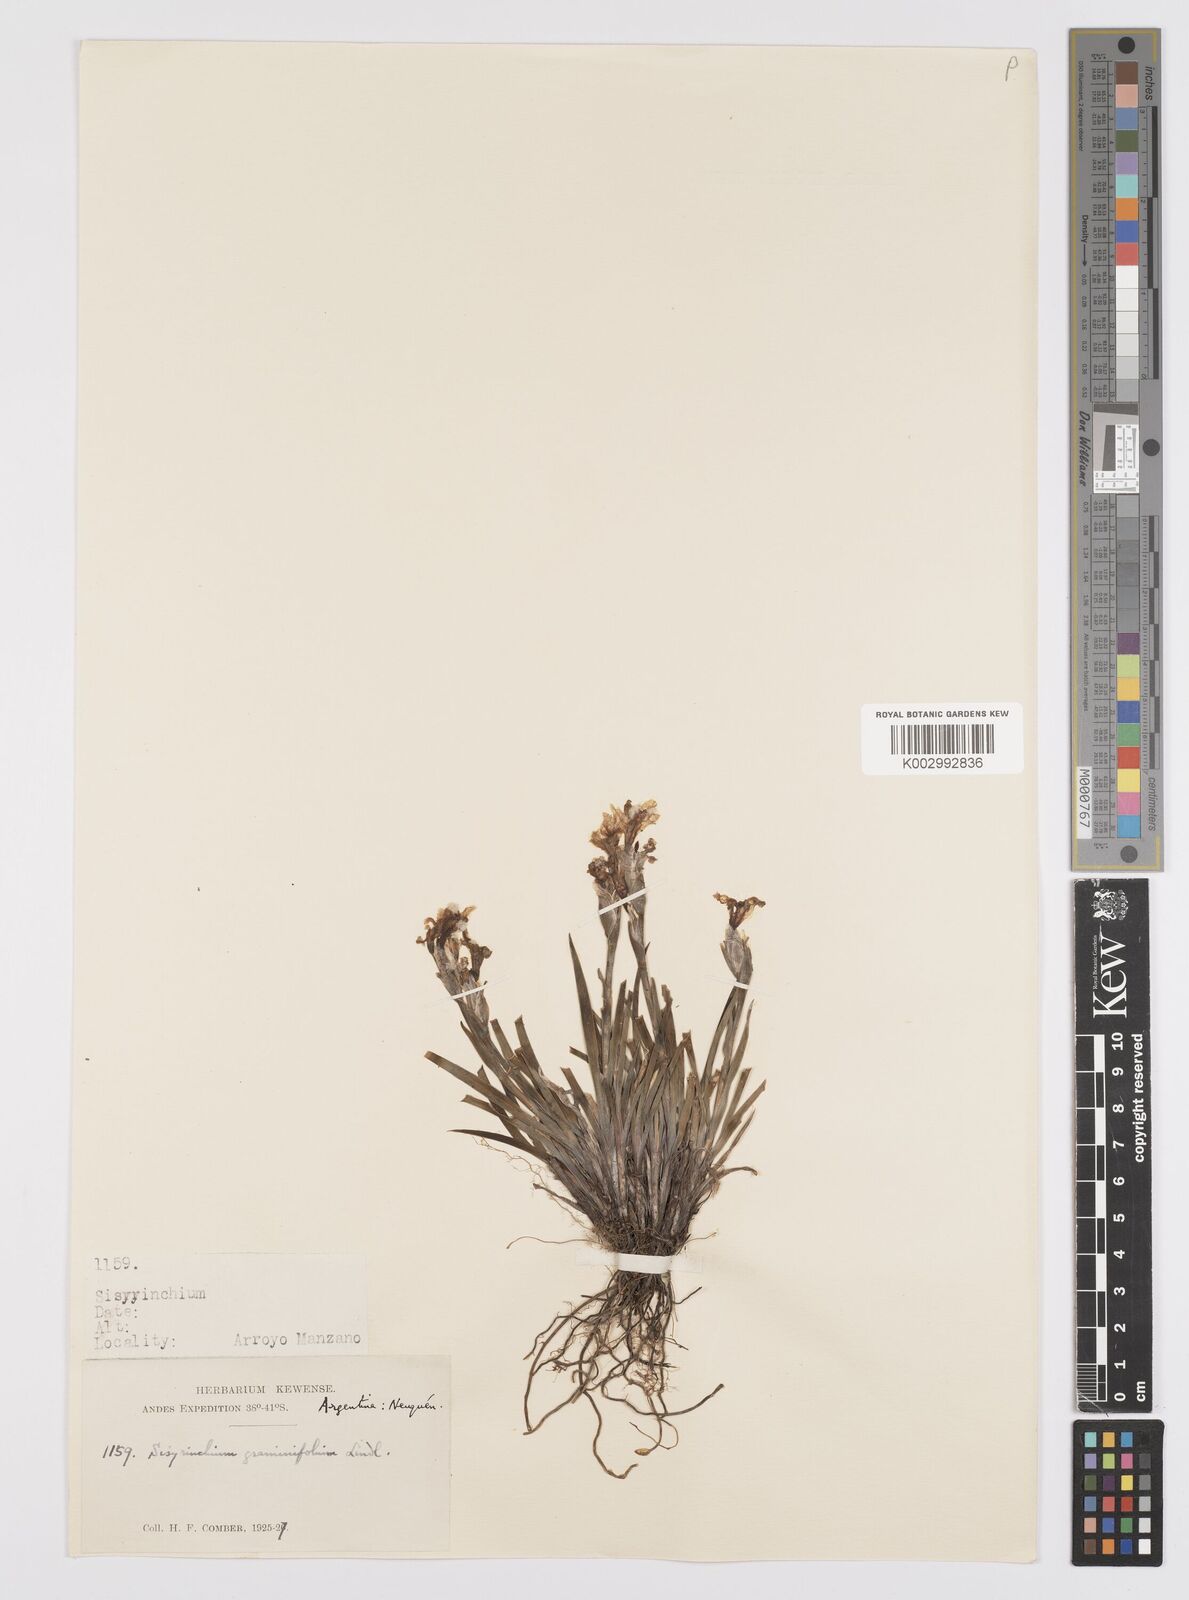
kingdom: Plantae
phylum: Tracheophyta
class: Liliopsida
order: Asparagales
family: Iridaceae
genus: Sisyrinchium
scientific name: Sisyrinchium graminifolium
